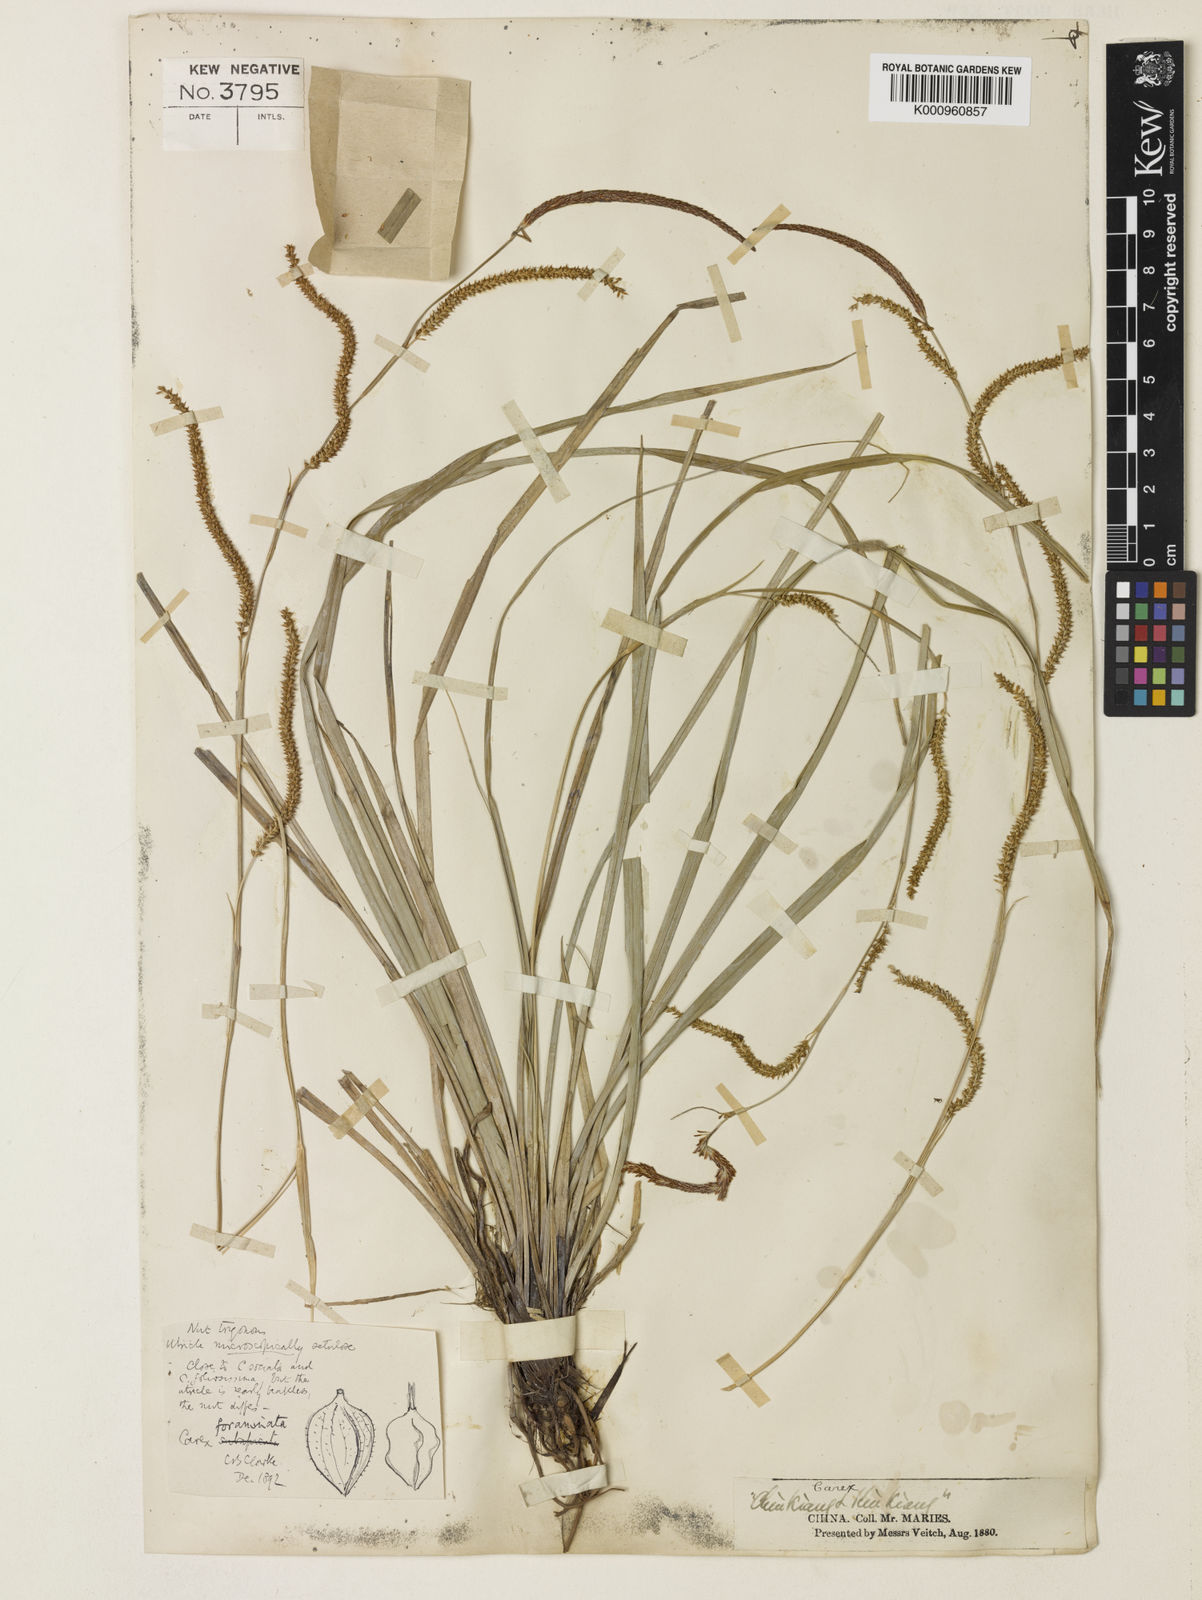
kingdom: Plantae
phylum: Tracheophyta
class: Liliopsida
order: Poales
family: Cyperaceae
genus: Carex
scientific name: Carex foraminata
